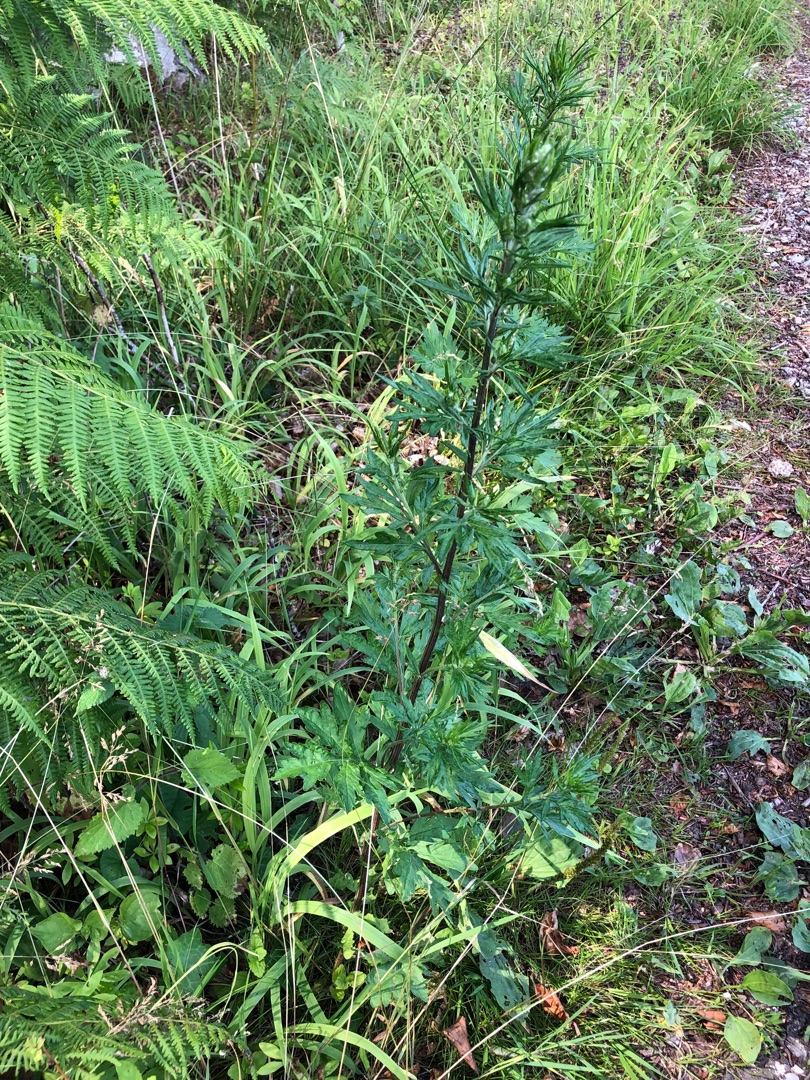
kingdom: Plantae
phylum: Tracheophyta
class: Magnoliopsida
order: Asterales
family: Asteraceae
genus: Artemisia
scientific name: Artemisia vulgaris
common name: Grå-bynke
